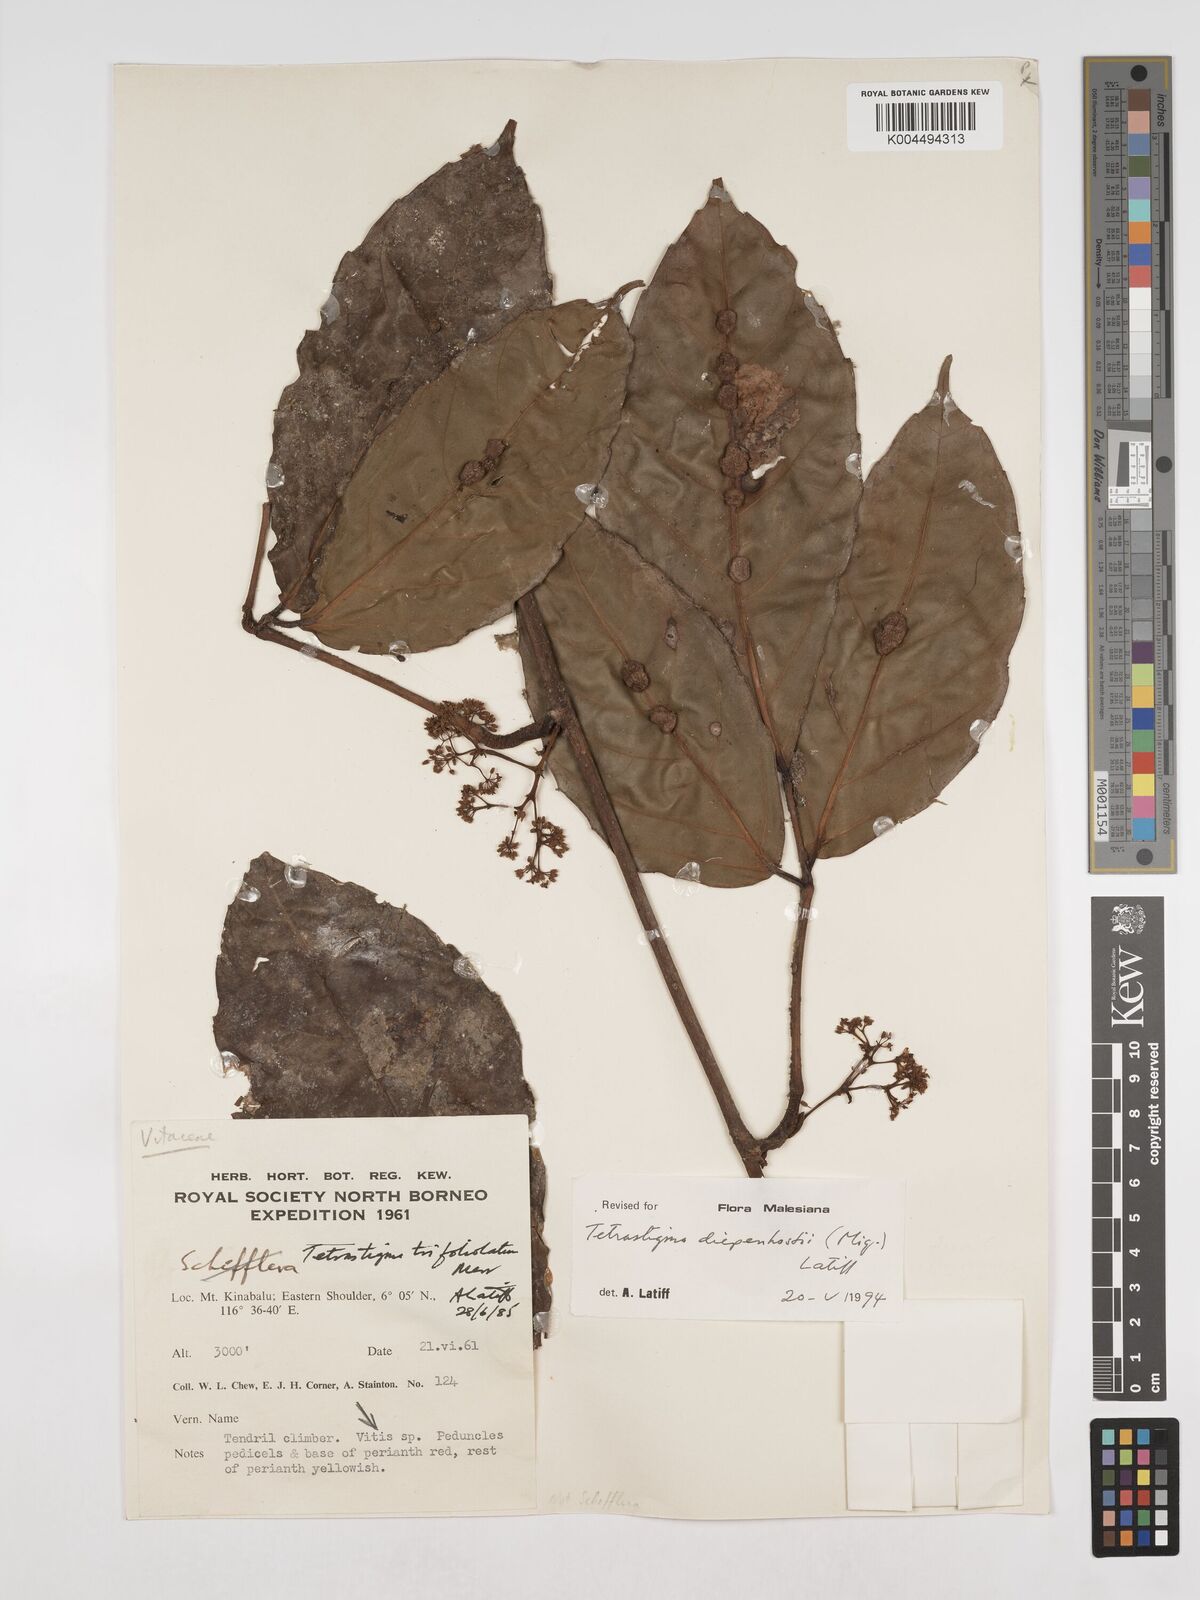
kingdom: Plantae
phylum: Tracheophyta
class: Magnoliopsida
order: Vitales
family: Vitaceae
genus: Tetrastigma
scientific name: Tetrastigma diepenhorstii
